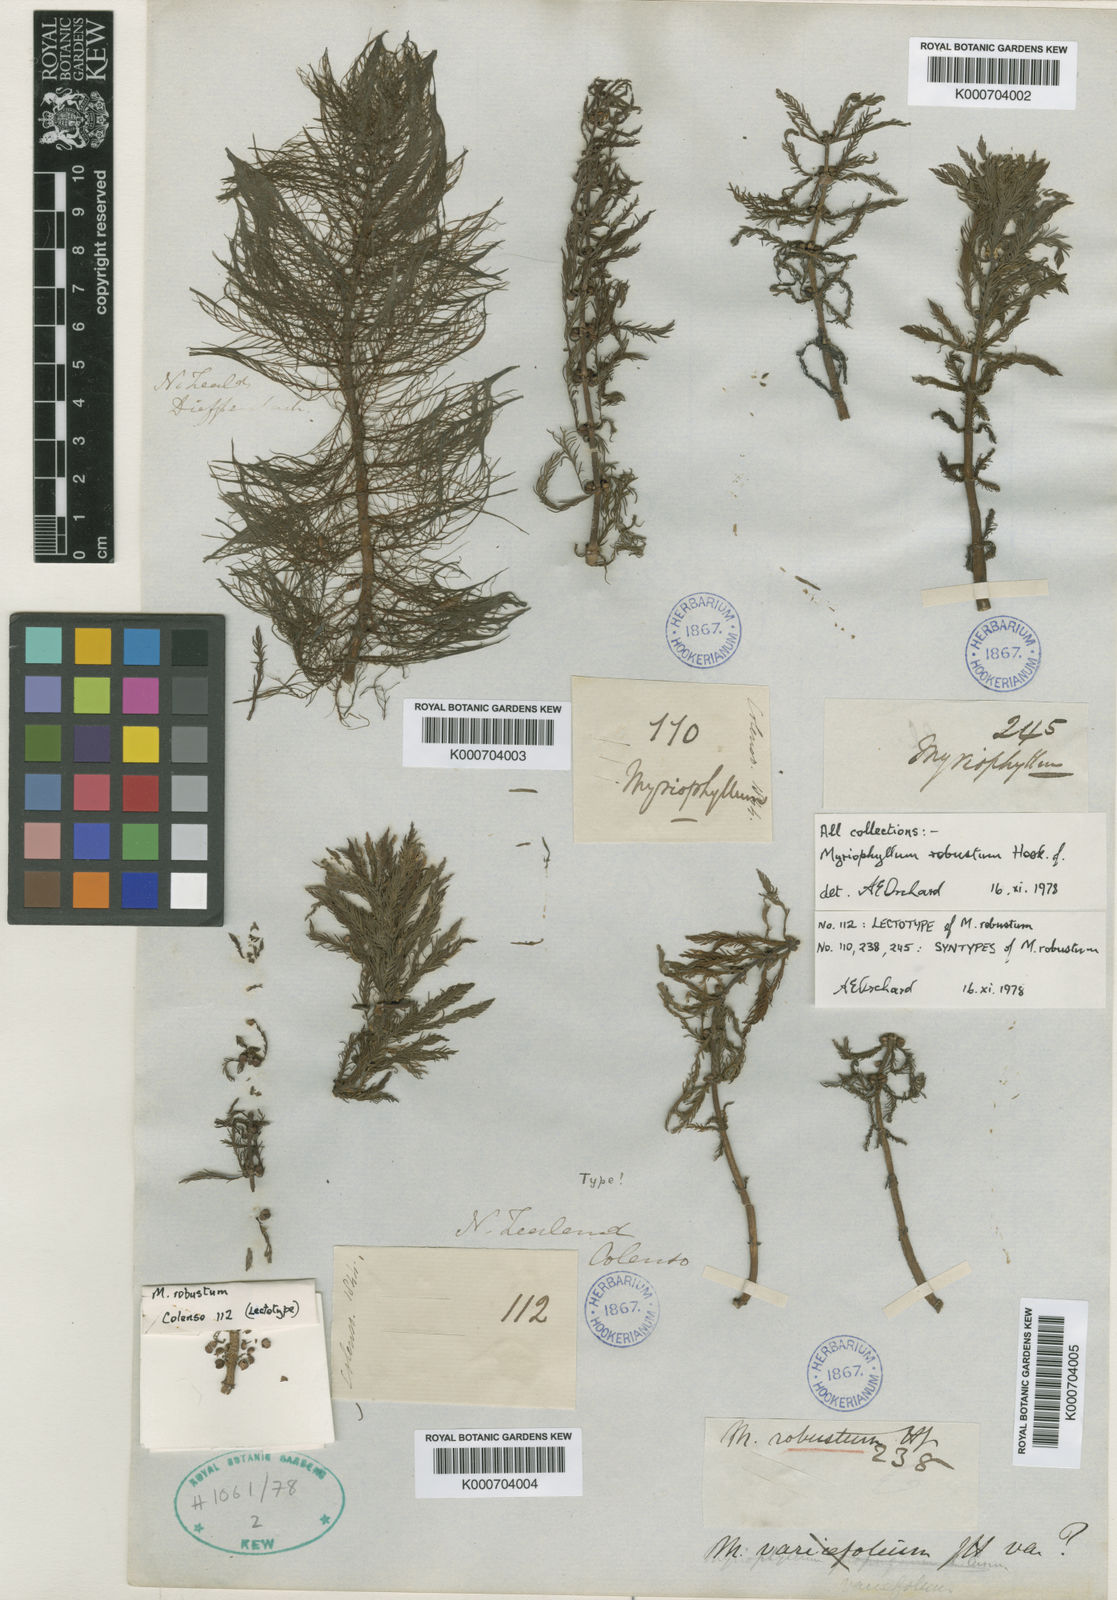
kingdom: Plantae
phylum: Tracheophyta
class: Magnoliopsida
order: Saxifragales
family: Haloragaceae
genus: Myriophyllum
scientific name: Myriophyllum robustum
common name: Stout water milfoil
